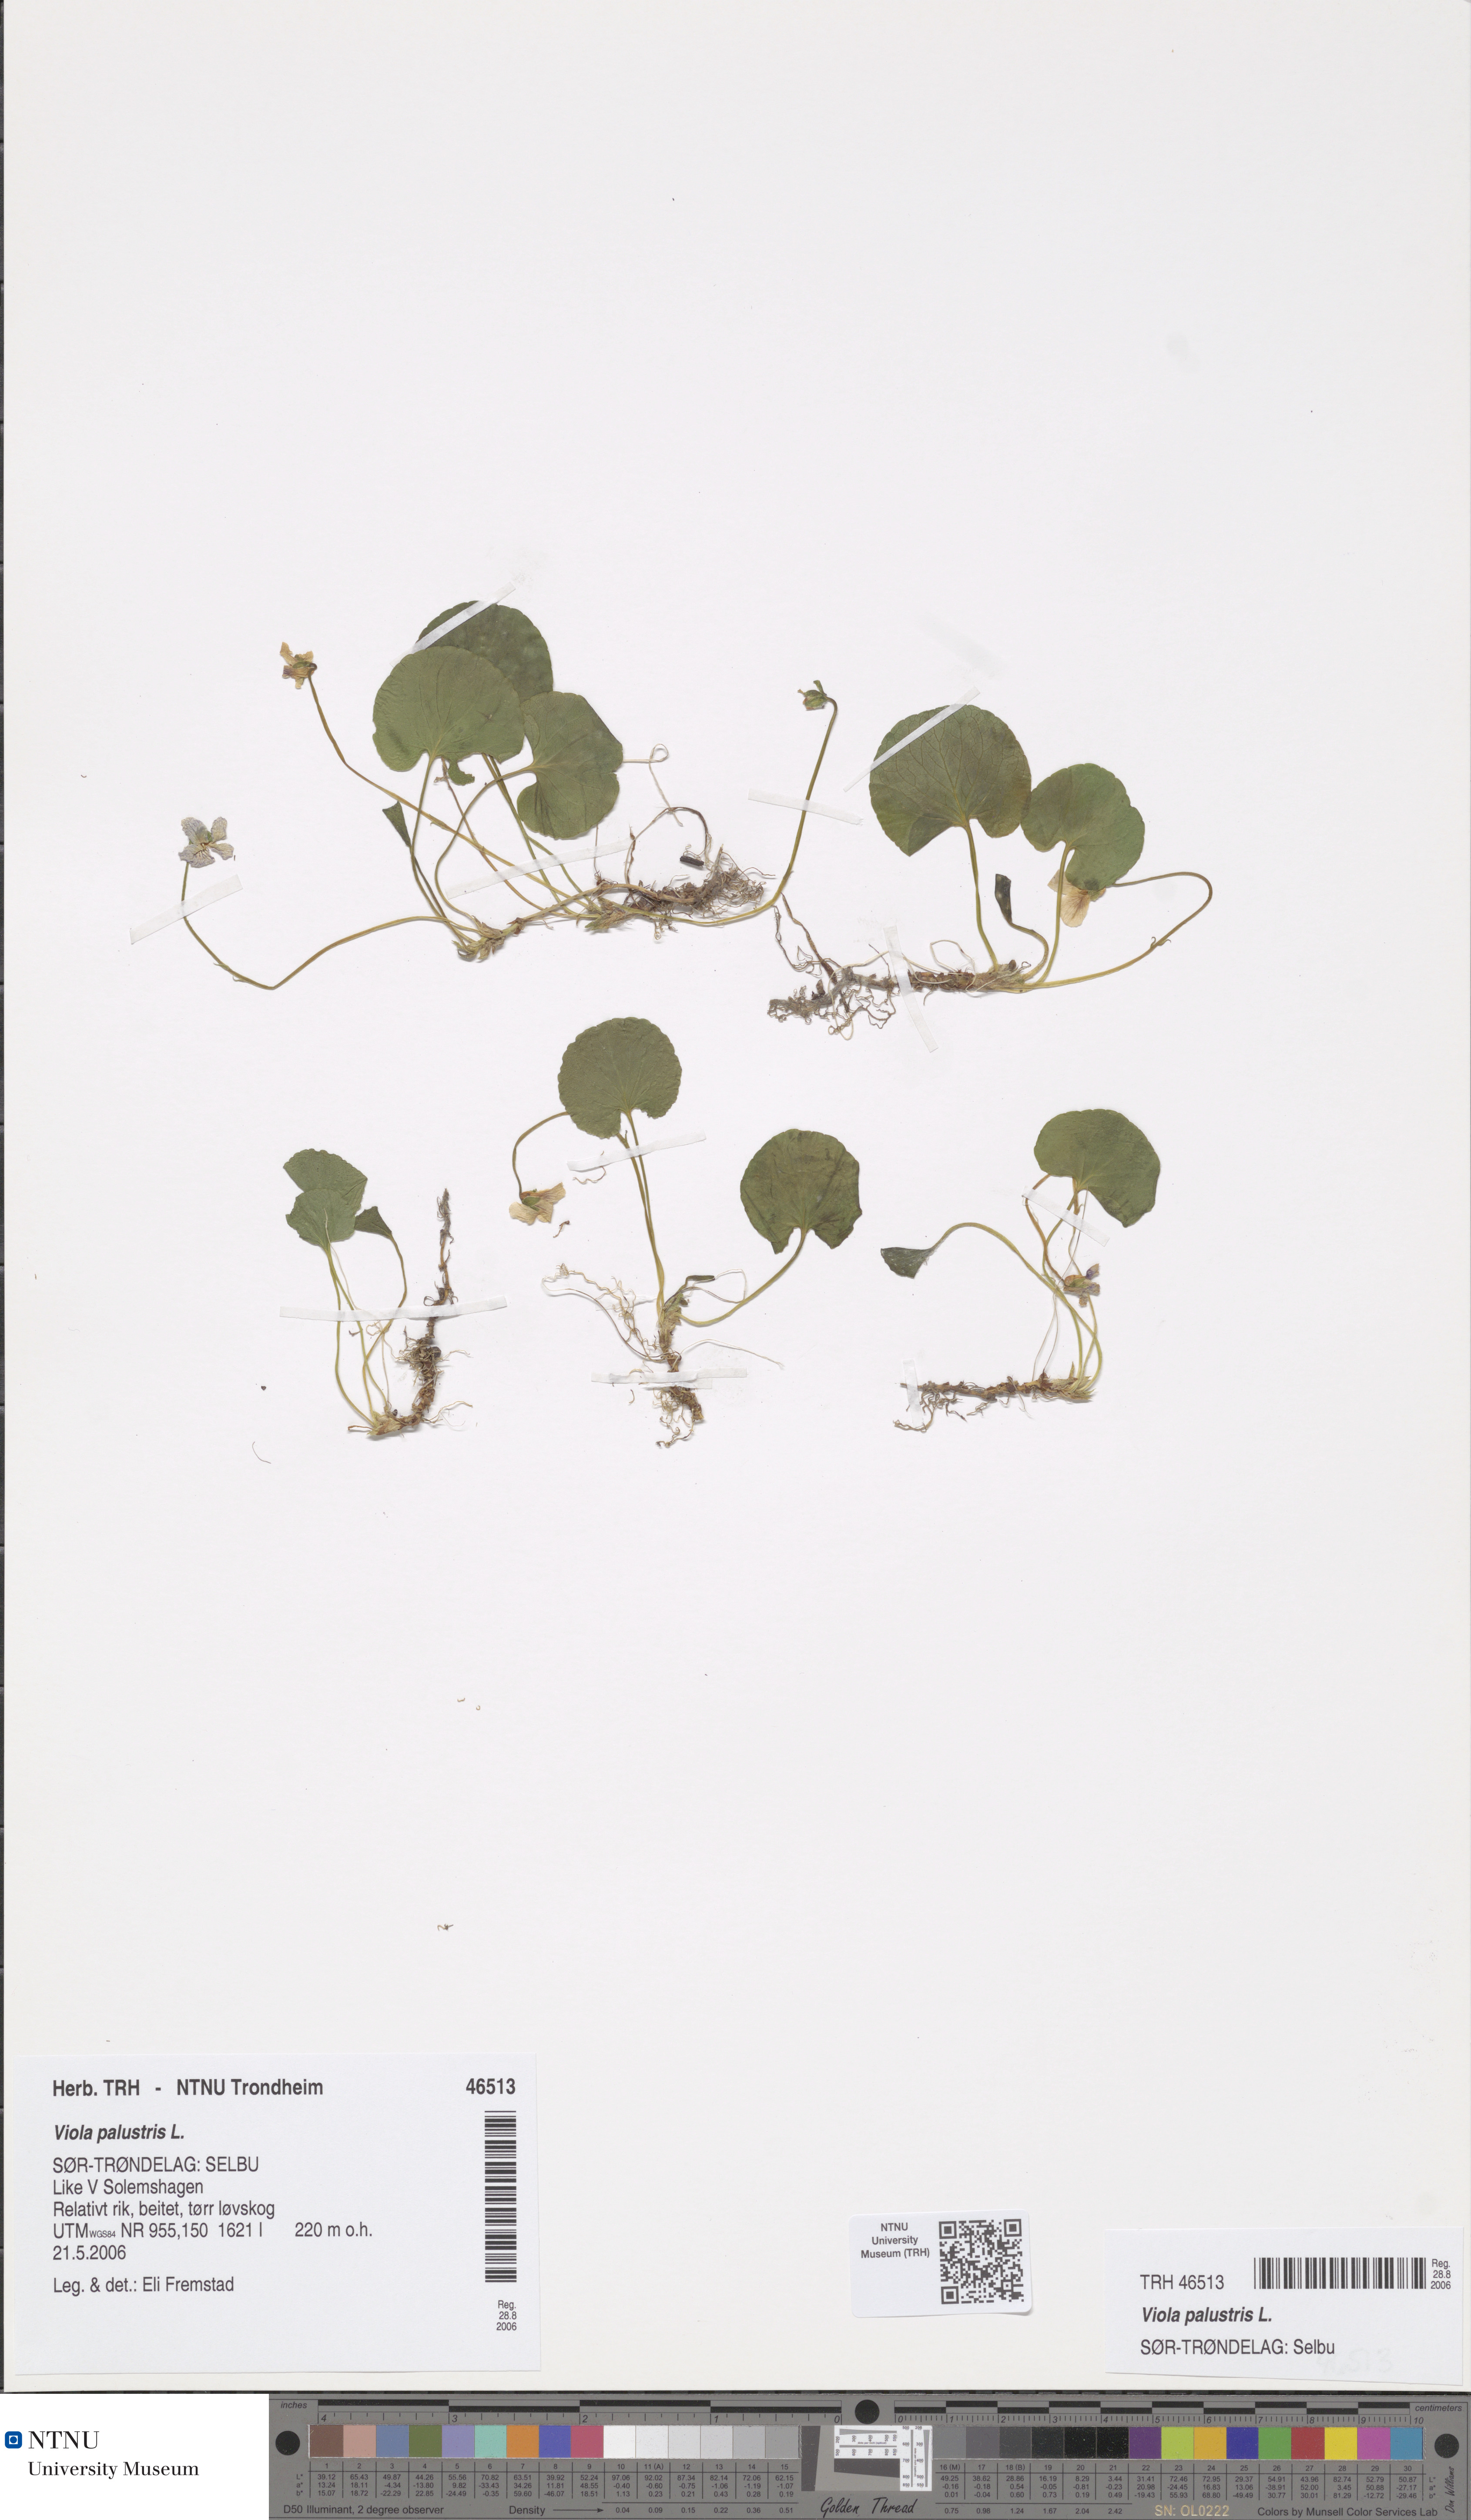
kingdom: Plantae
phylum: Tracheophyta
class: Magnoliopsida
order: Malpighiales
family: Violaceae
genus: Viola
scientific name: Viola palustris
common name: Marsh violet
